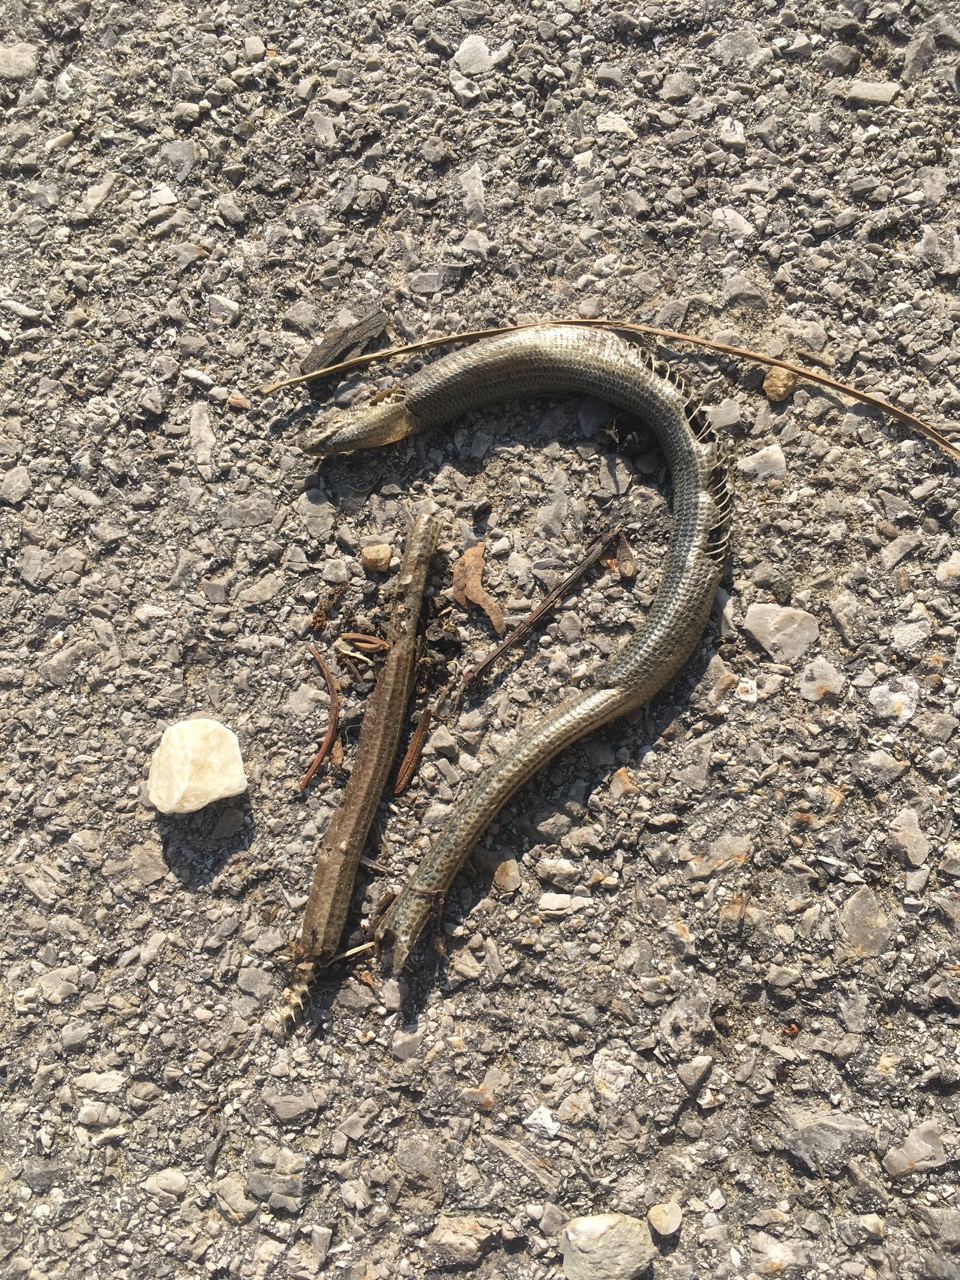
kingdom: Animalia
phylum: Chordata
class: Squamata
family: Anguidae
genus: Anguis
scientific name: Anguis fragilis
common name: Slow worm
